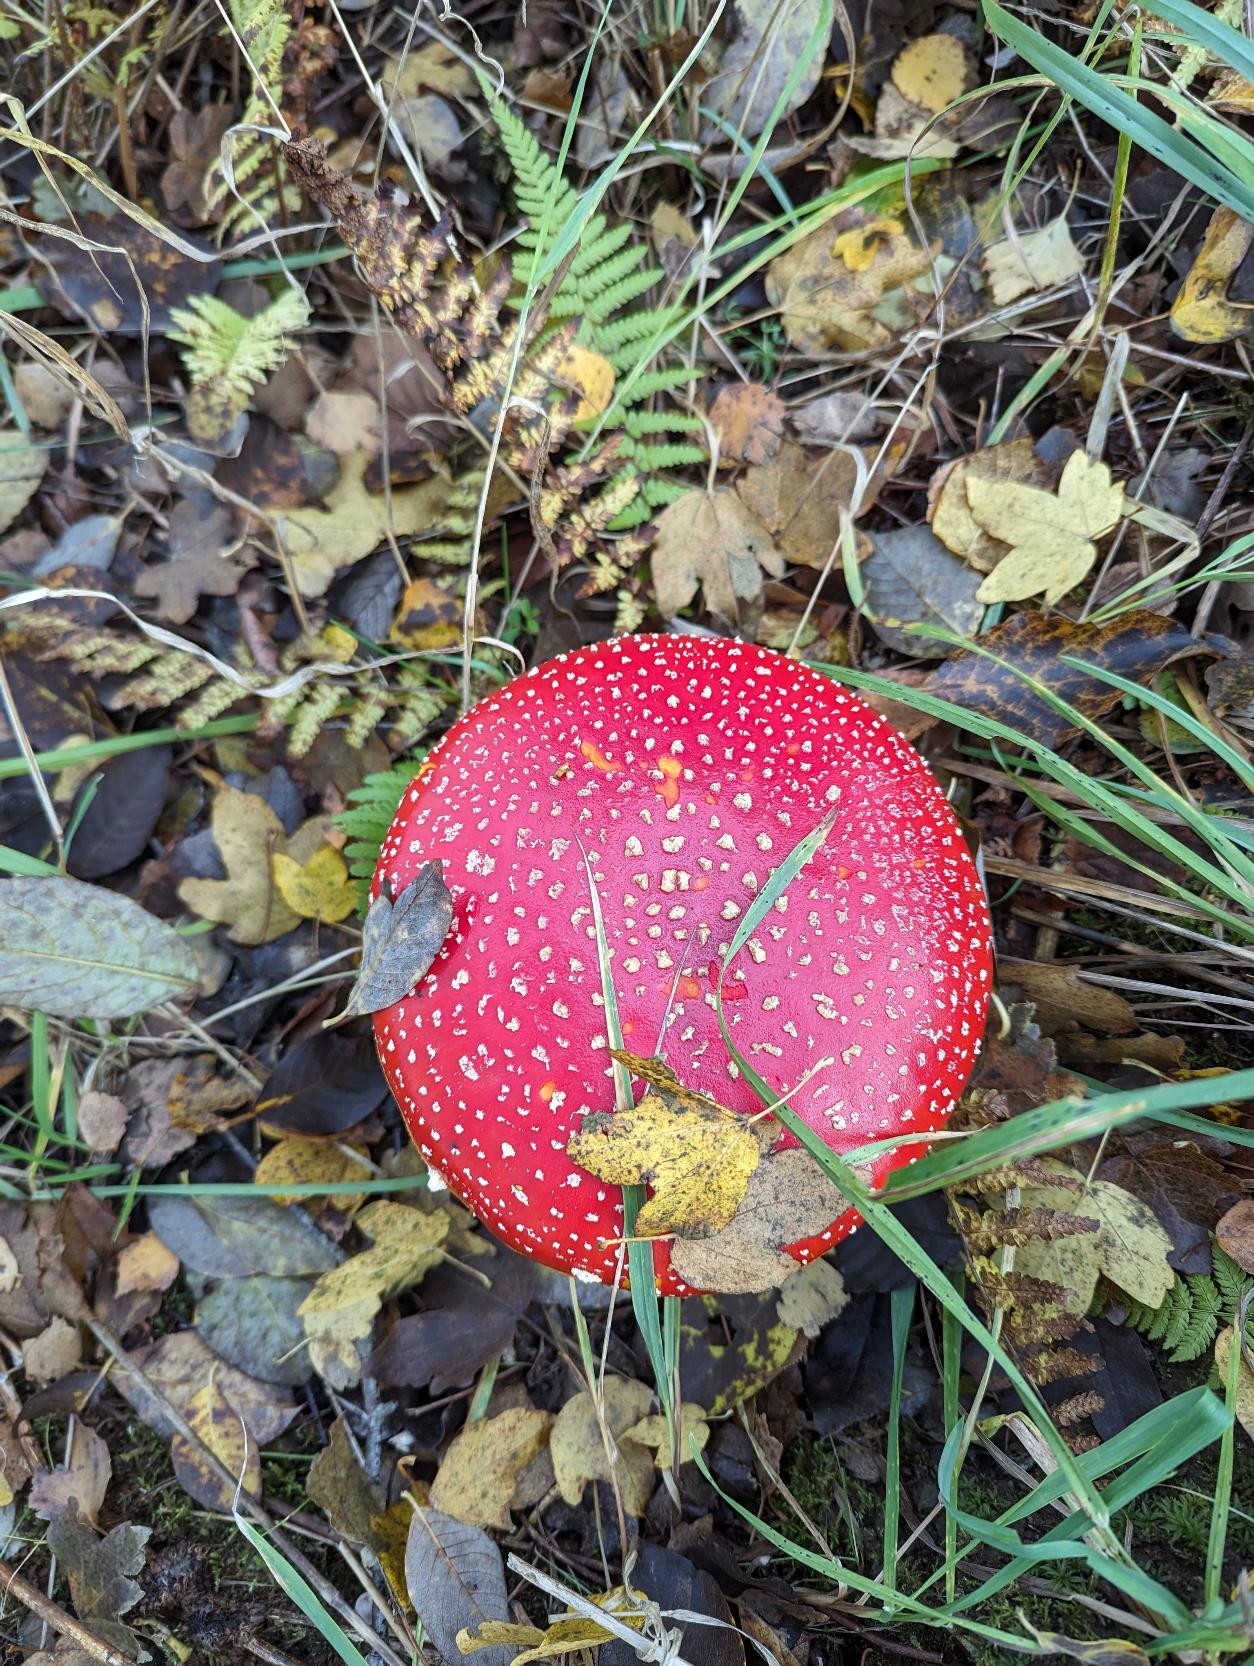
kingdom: Fungi
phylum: Basidiomycota
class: Agaricomycetes
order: Agaricales
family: Amanitaceae
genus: Amanita
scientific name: Amanita muscaria
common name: Rød fluesvamp
